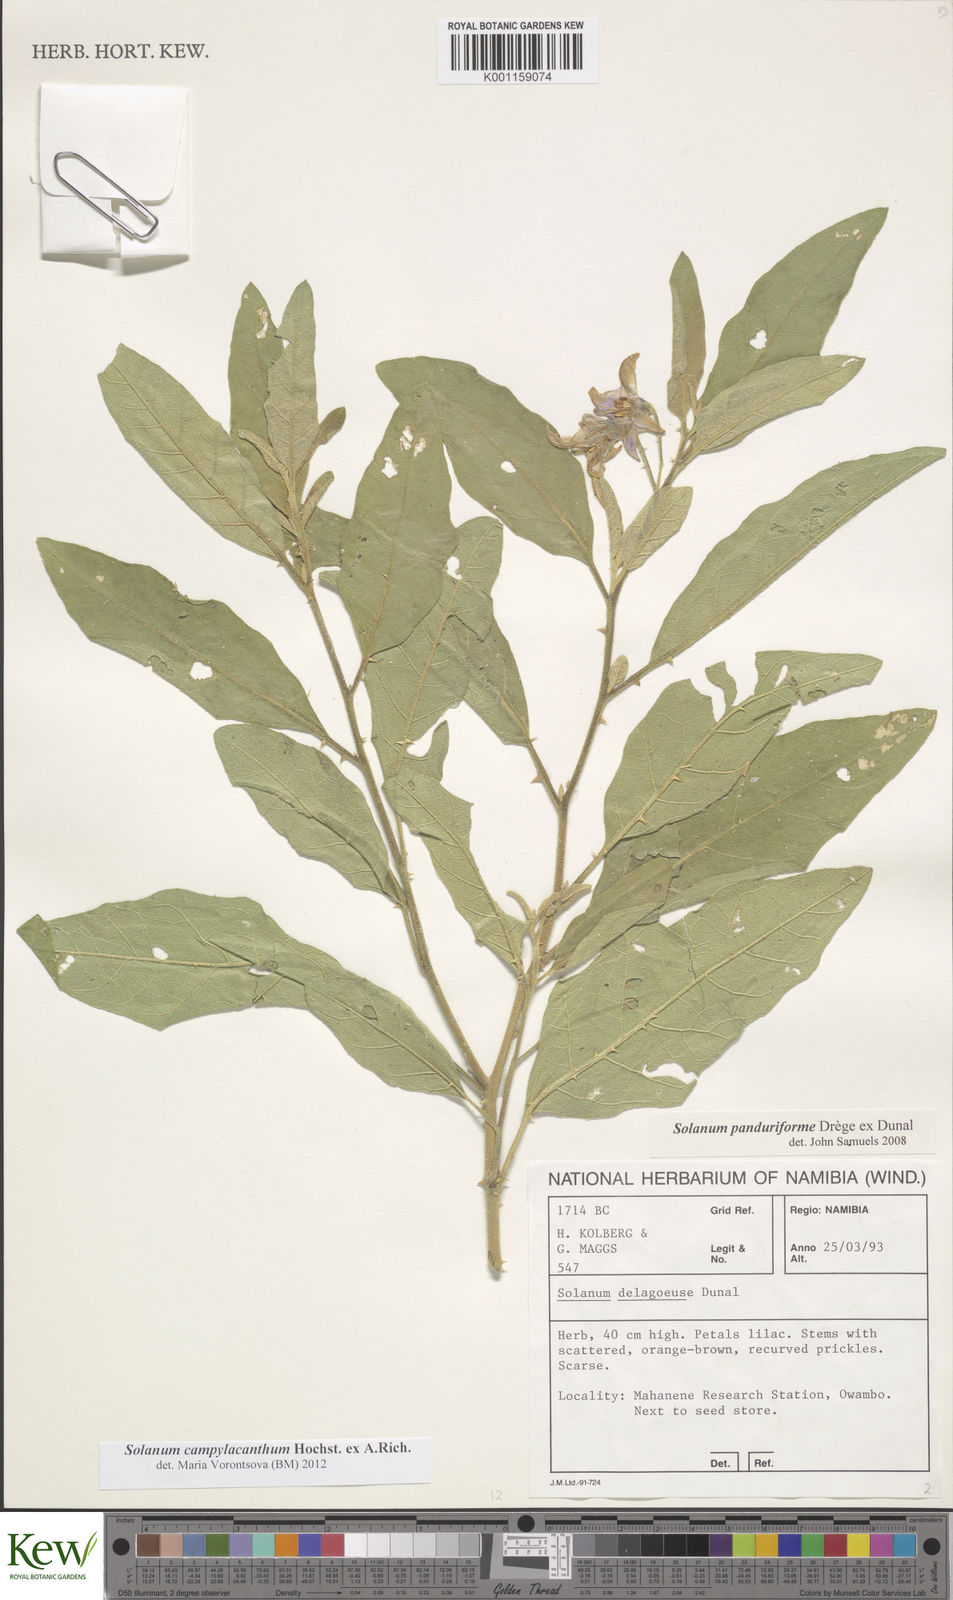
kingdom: Plantae
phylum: Tracheophyta
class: Magnoliopsida
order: Solanales
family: Solanaceae
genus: Solanum
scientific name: Solanum campylacanthum
